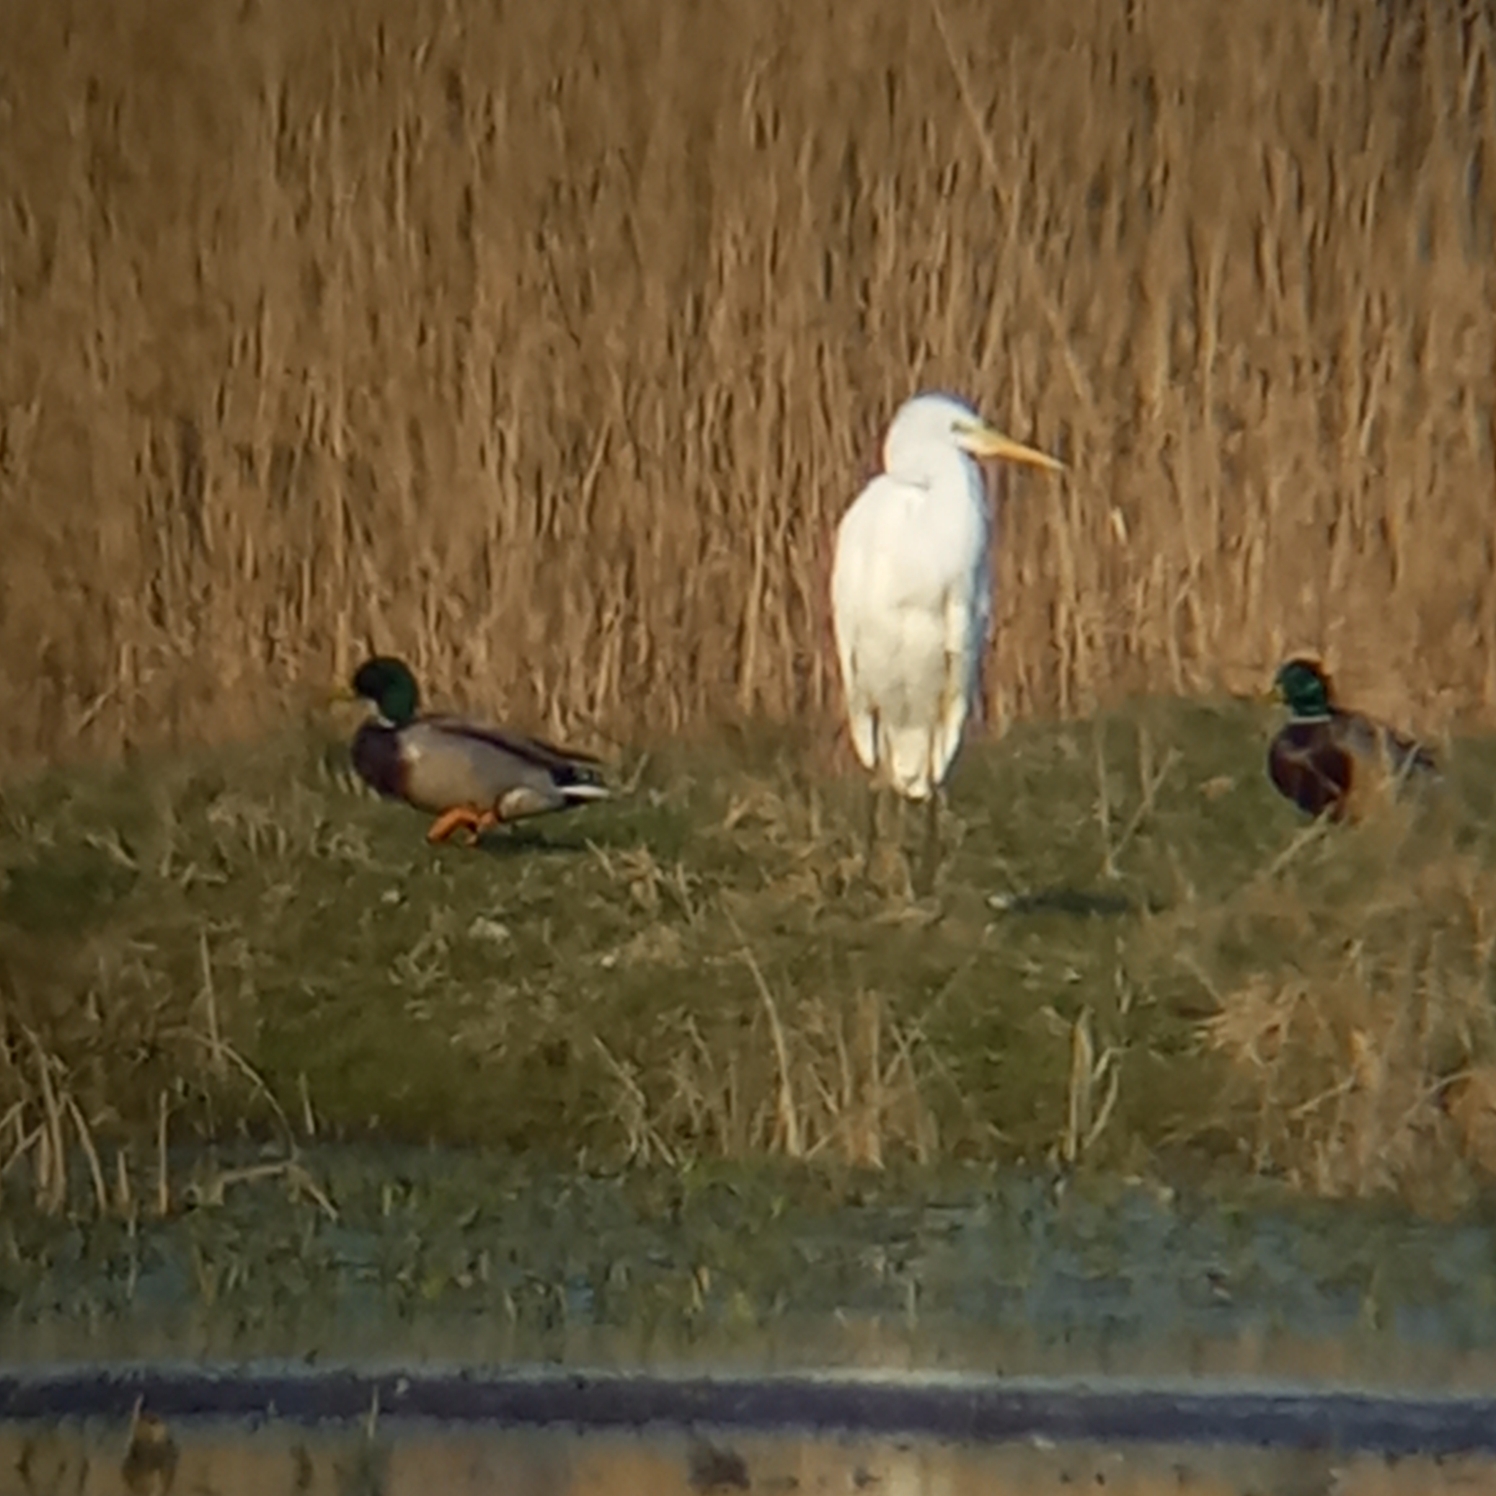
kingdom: Animalia
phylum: Chordata
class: Aves
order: Pelecaniformes
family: Ardeidae
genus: Ardea
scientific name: Ardea alba
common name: Sølvhejre
